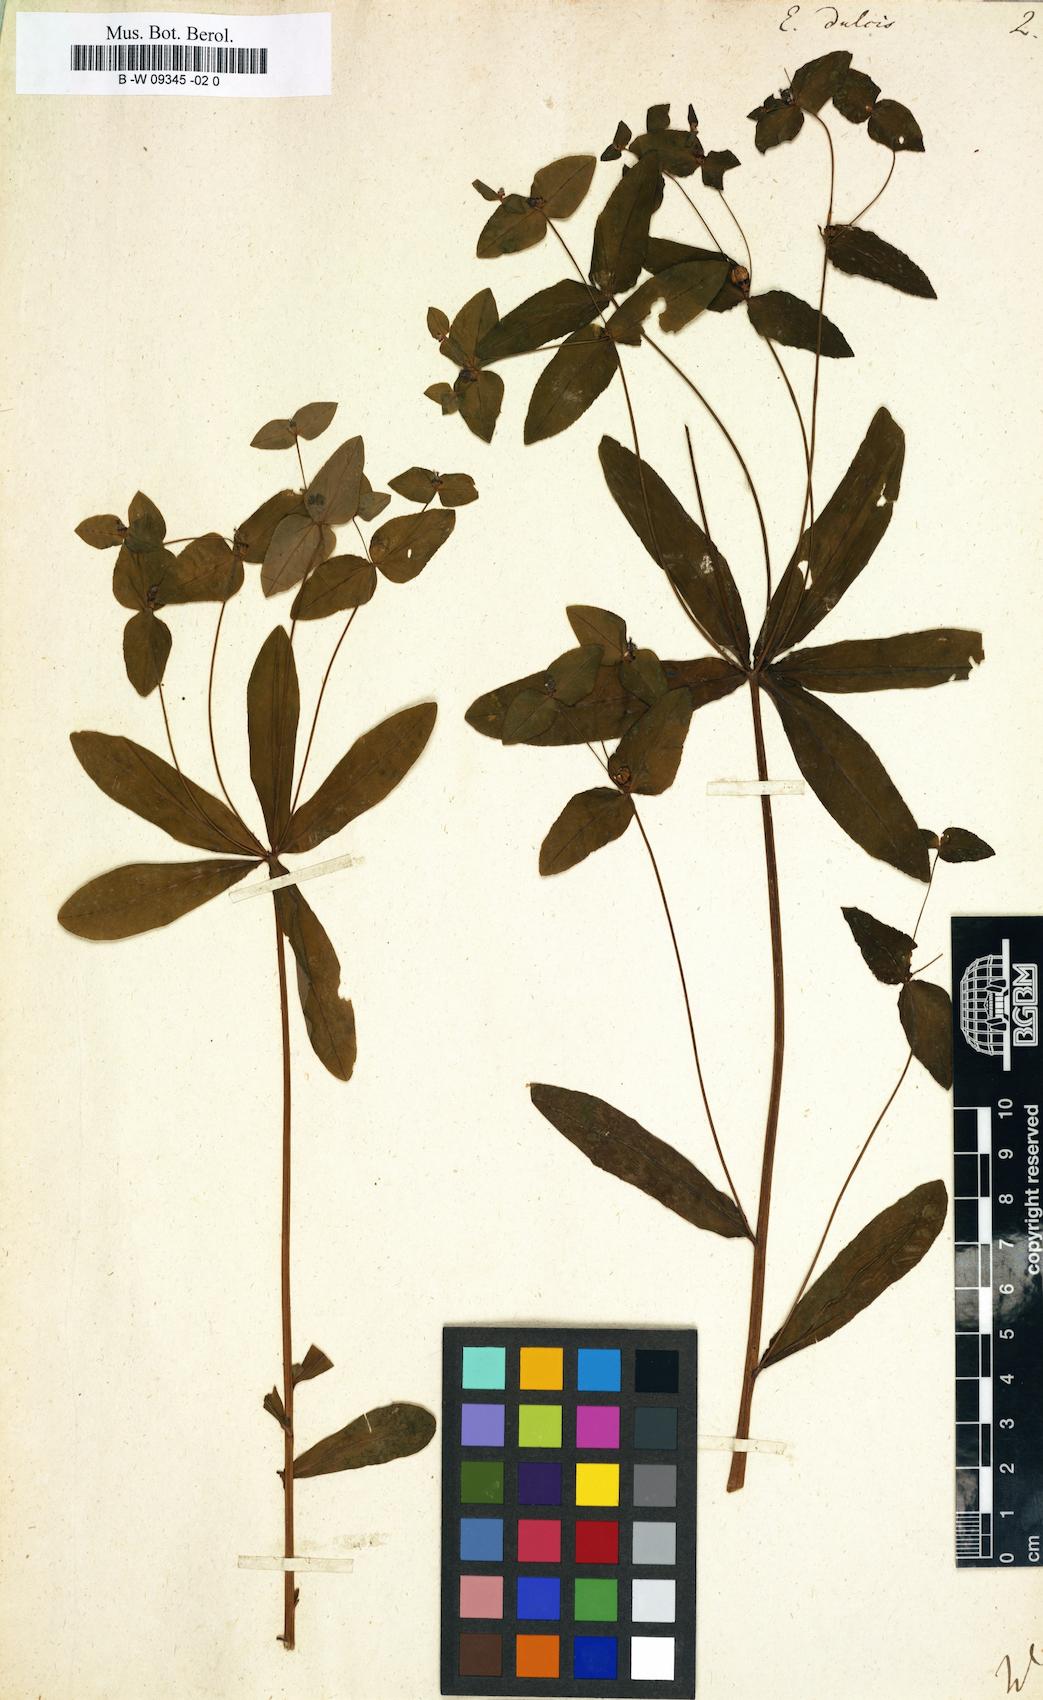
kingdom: Plantae
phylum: Tracheophyta
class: Magnoliopsida
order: Malpighiales
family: Euphorbiaceae
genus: Euphorbia
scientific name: Euphorbia dulcis
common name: Sweet spurge
